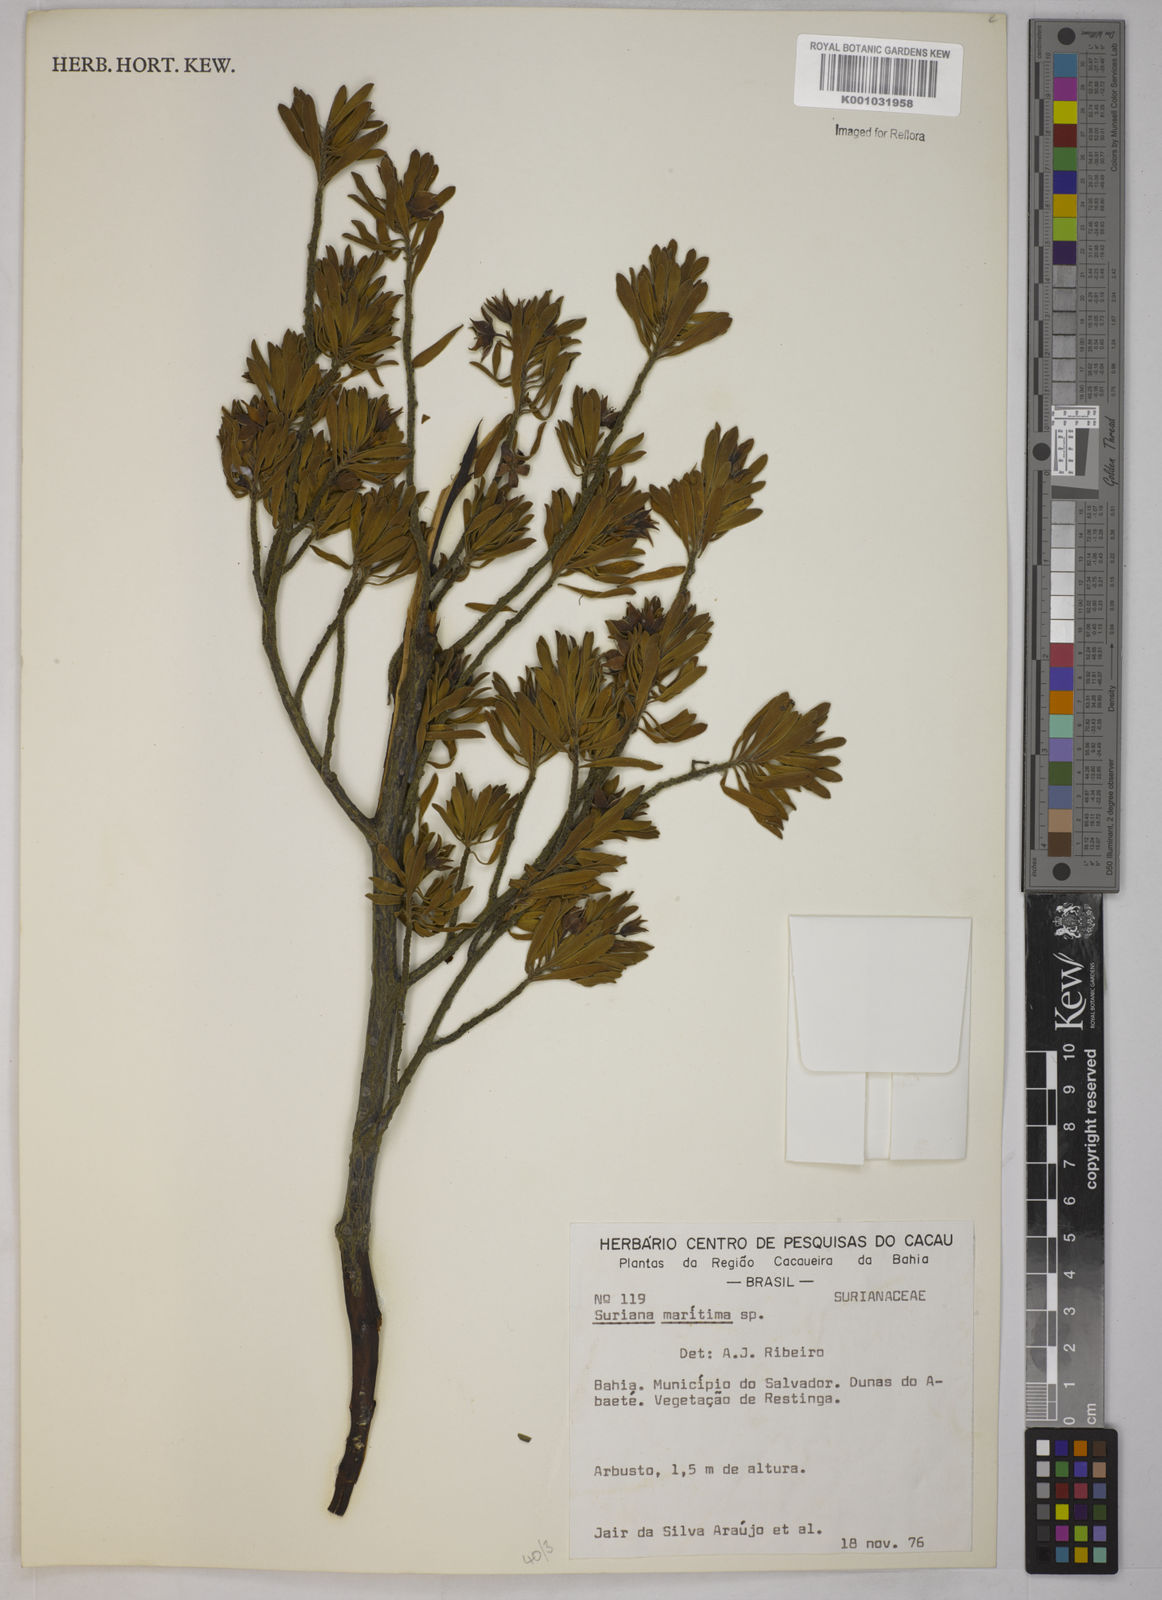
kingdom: Plantae
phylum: Tracheophyta
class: Magnoliopsida
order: Fabales
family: Surianaceae
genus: Suriana
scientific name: Suriana maritima
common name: Bay-cedar
